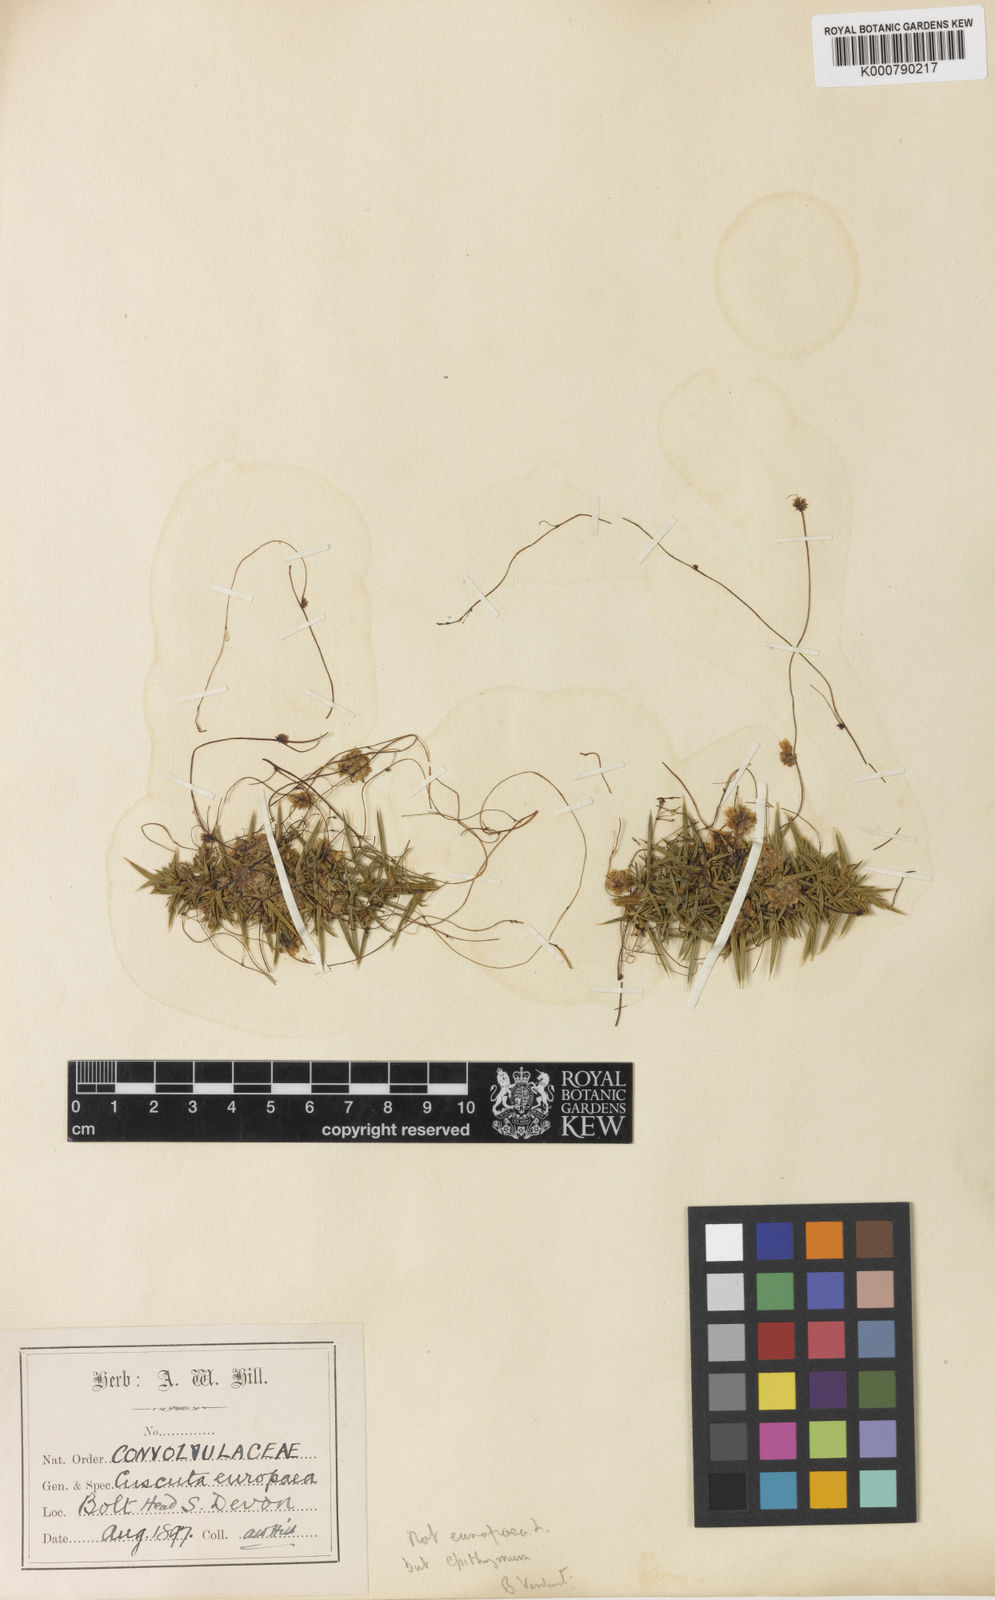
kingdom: Plantae
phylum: Tracheophyta
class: Magnoliopsida
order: Solanales
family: Convolvulaceae
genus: Cuscuta
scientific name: Cuscuta epithymum
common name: Clover dodder
